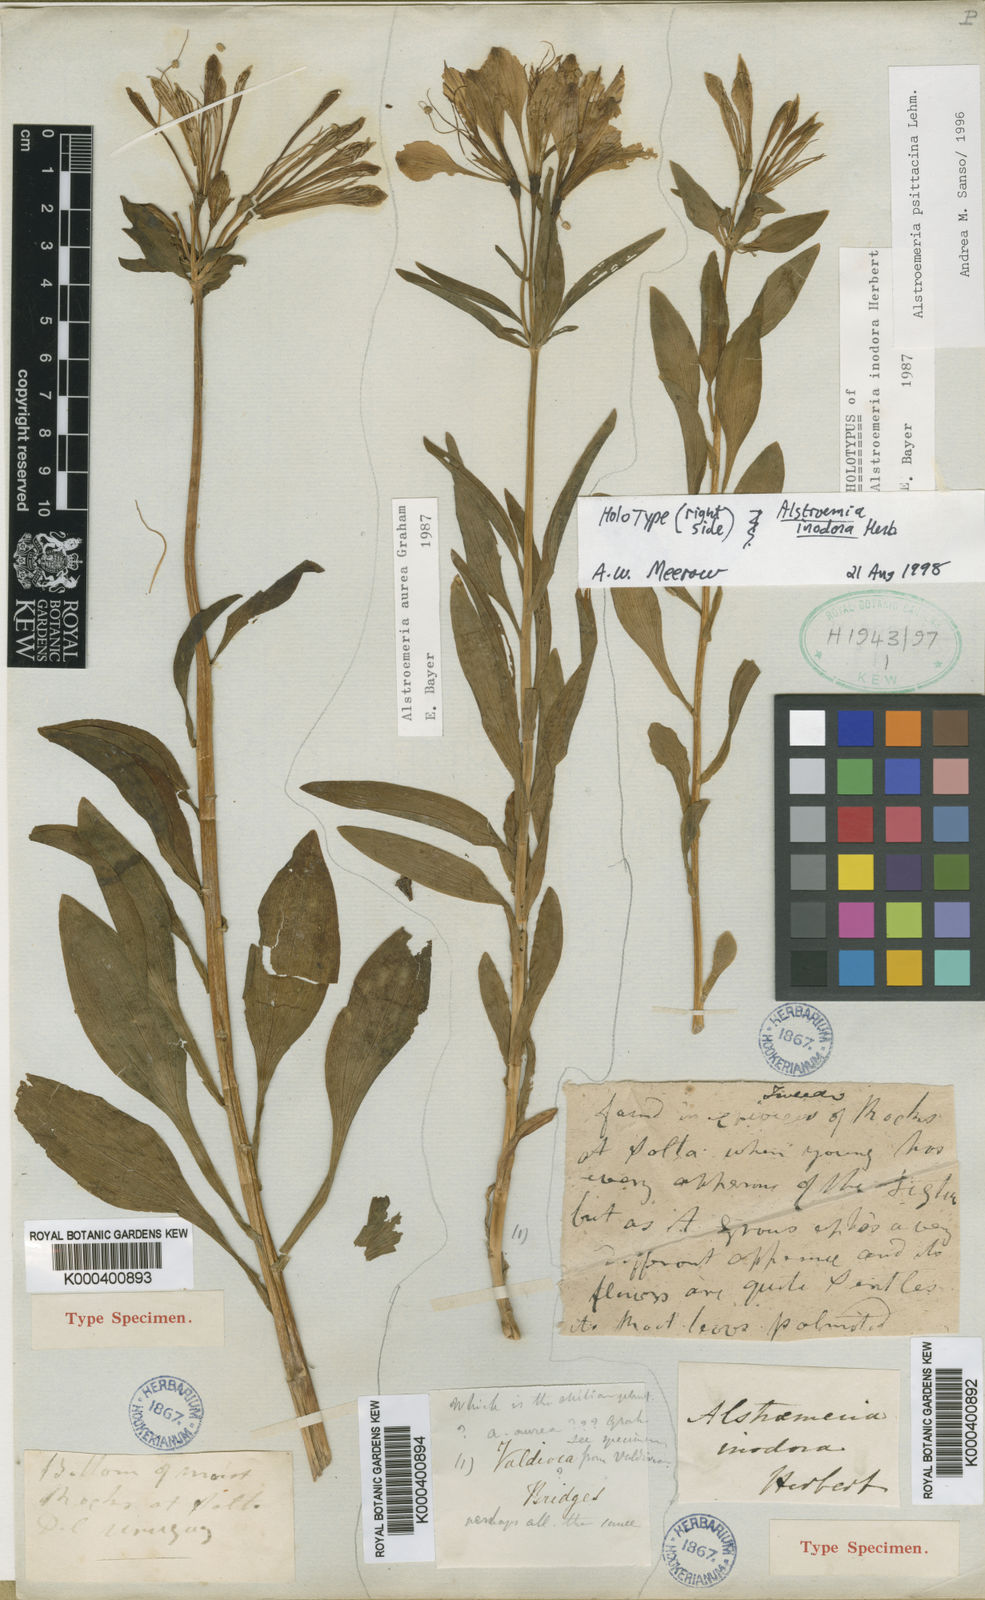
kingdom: Plantae
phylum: Tracheophyta
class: Liliopsida
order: Liliales
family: Alstroemeriaceae
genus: Alstroemeria
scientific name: Alstroemeria inodora
